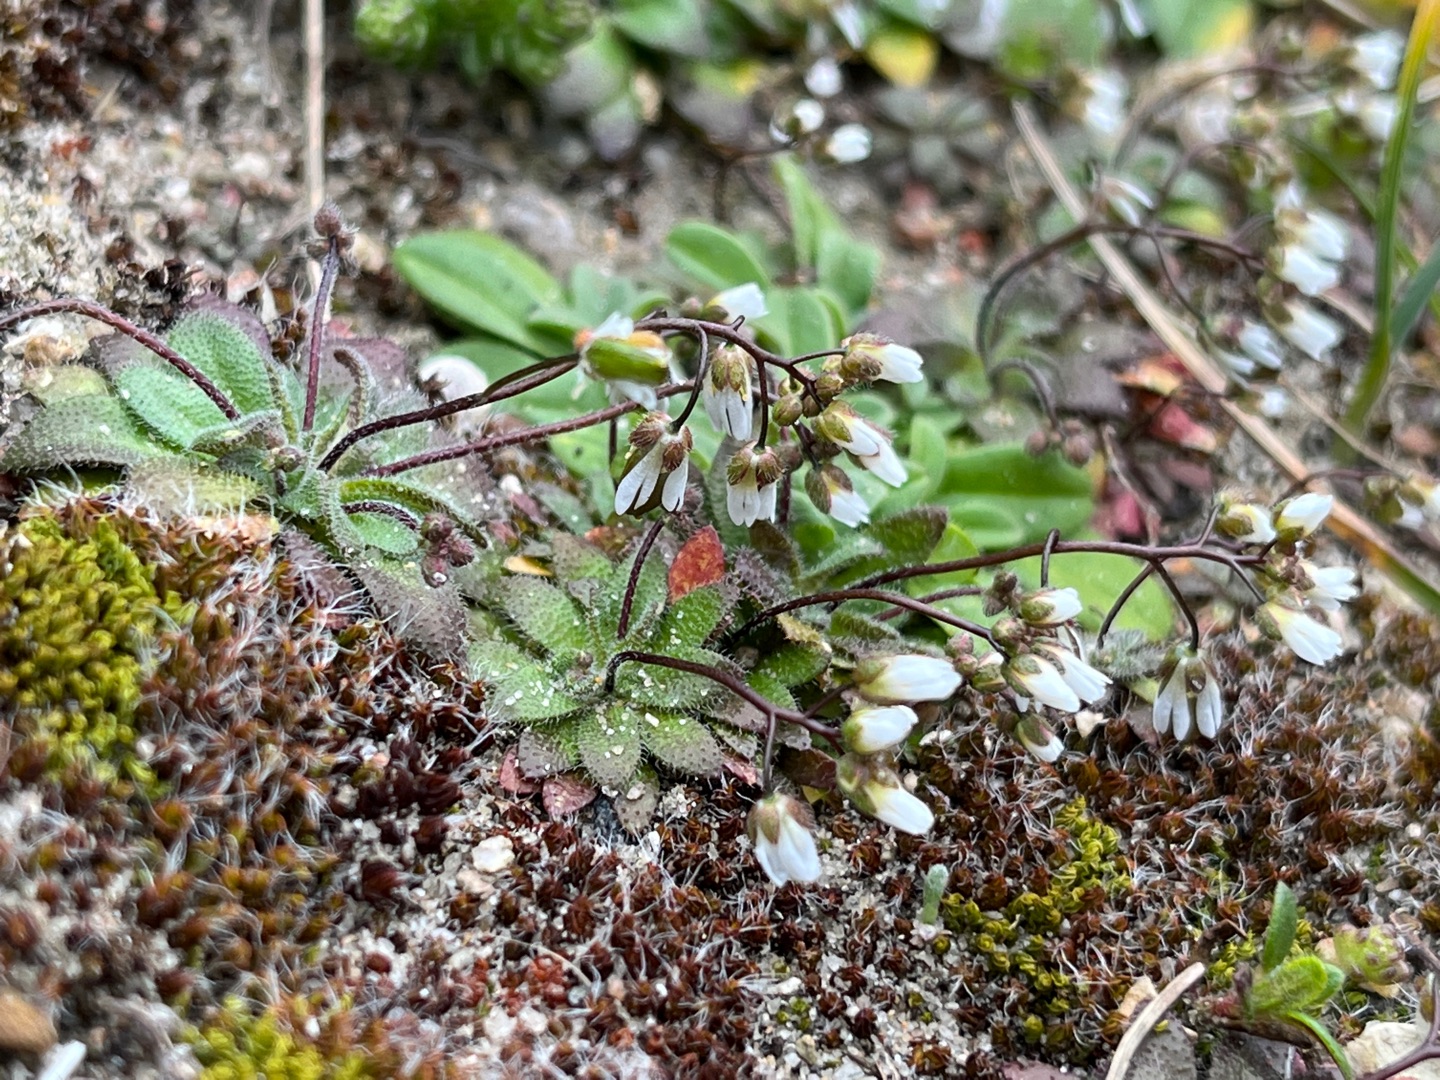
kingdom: Plantae
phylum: Tracheophyta
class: Magnoliopsida
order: Brassicales
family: Brassicaceae
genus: Draba
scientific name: Draba verna
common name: Vår-gæslingeblomst
